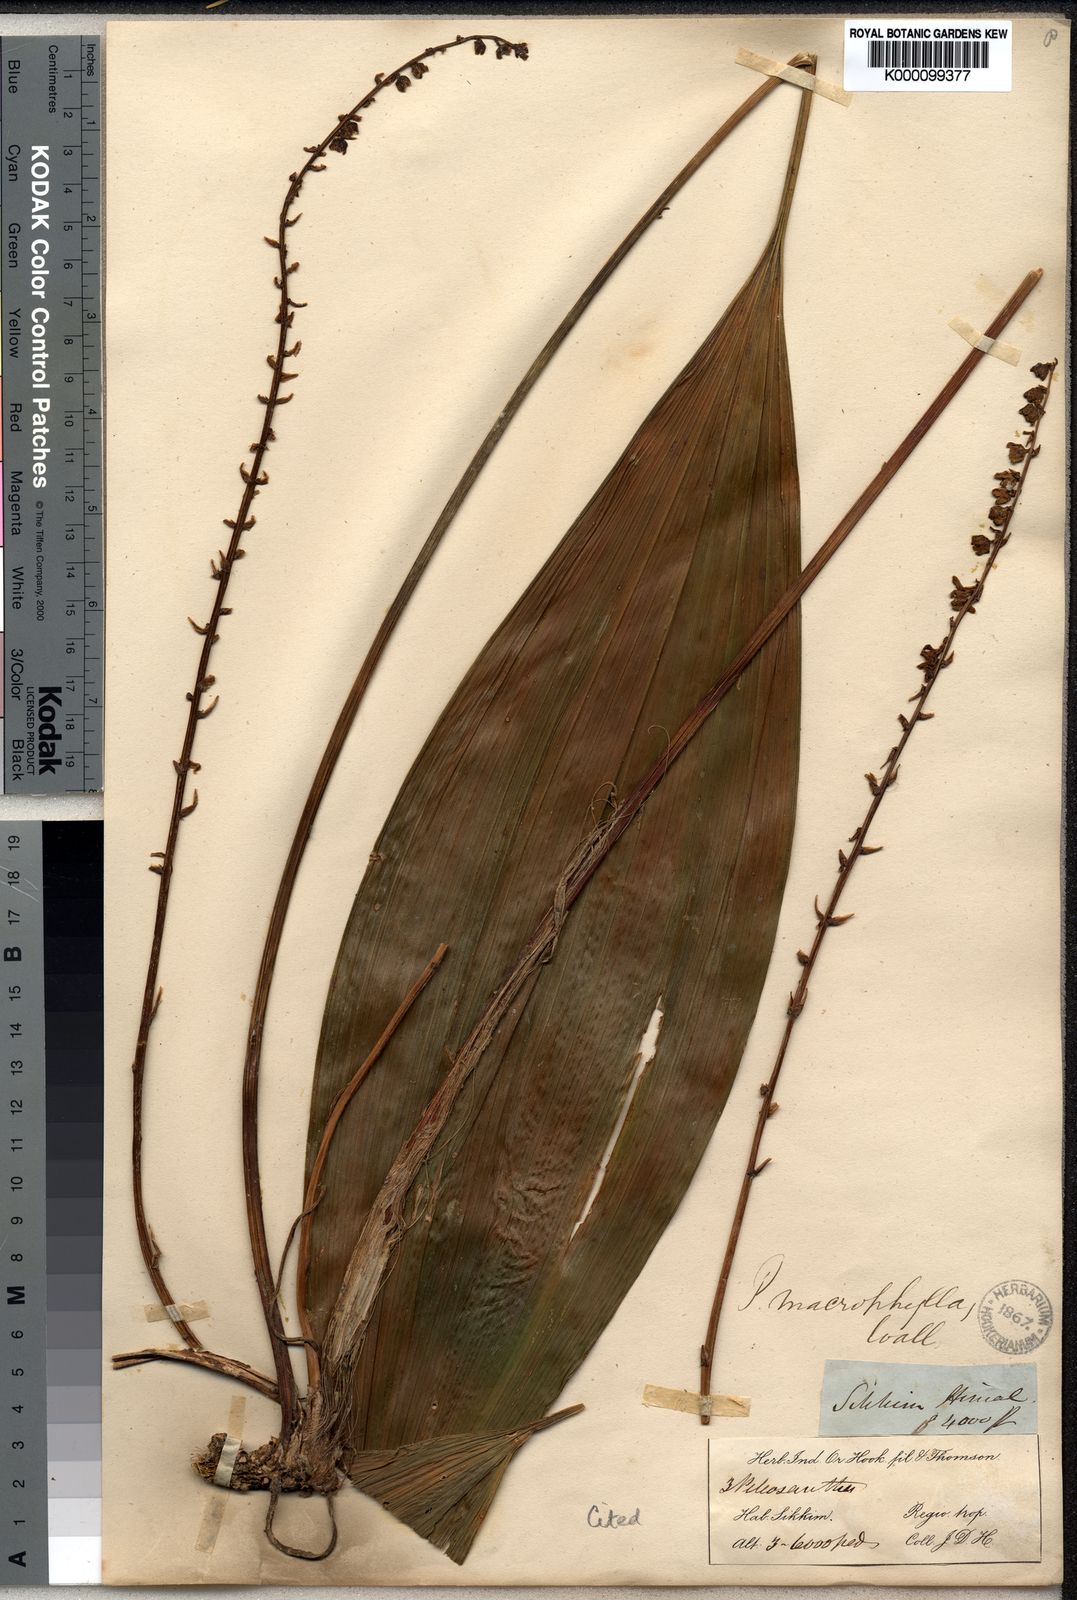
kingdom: Plantae
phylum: Tracheophyta
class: Liliopsida
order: Asparagales
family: Asparagaceae
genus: Peliosanthes
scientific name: Peliosanthes
